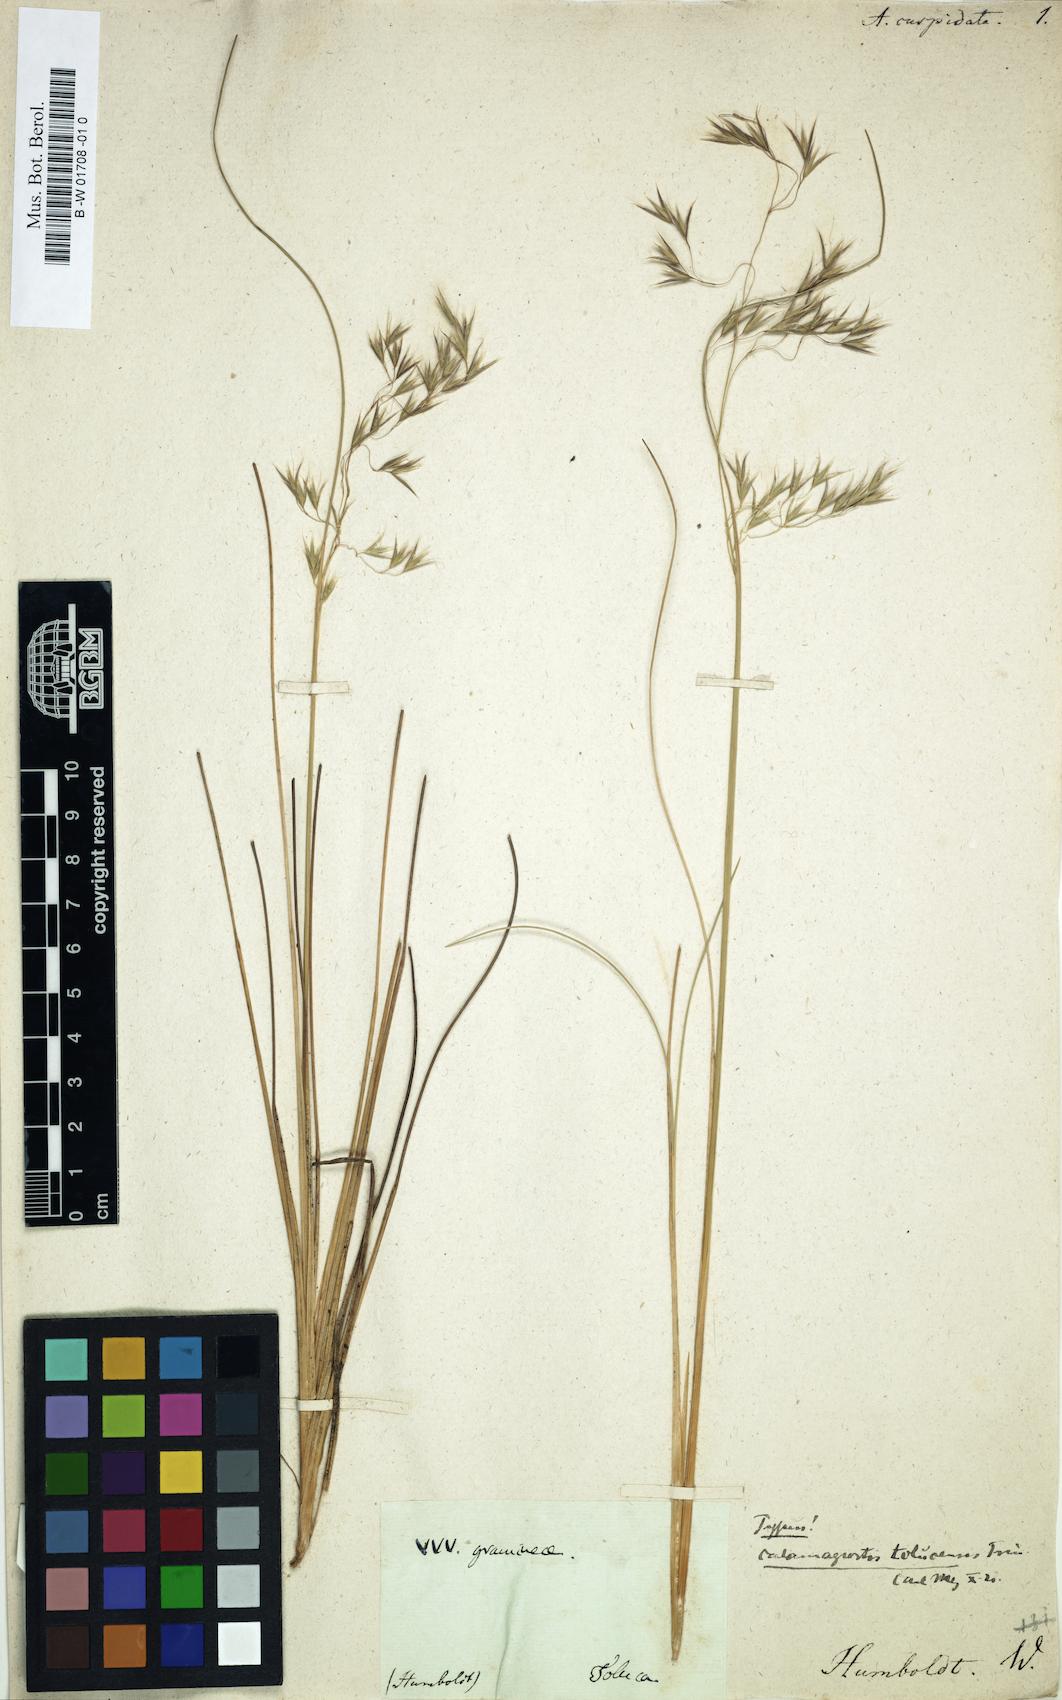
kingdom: Plantae
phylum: Tracheophyta
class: Liliopsida
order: Poales
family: Poaceae
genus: Peyritschia
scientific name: Peyritschia tolucensis
